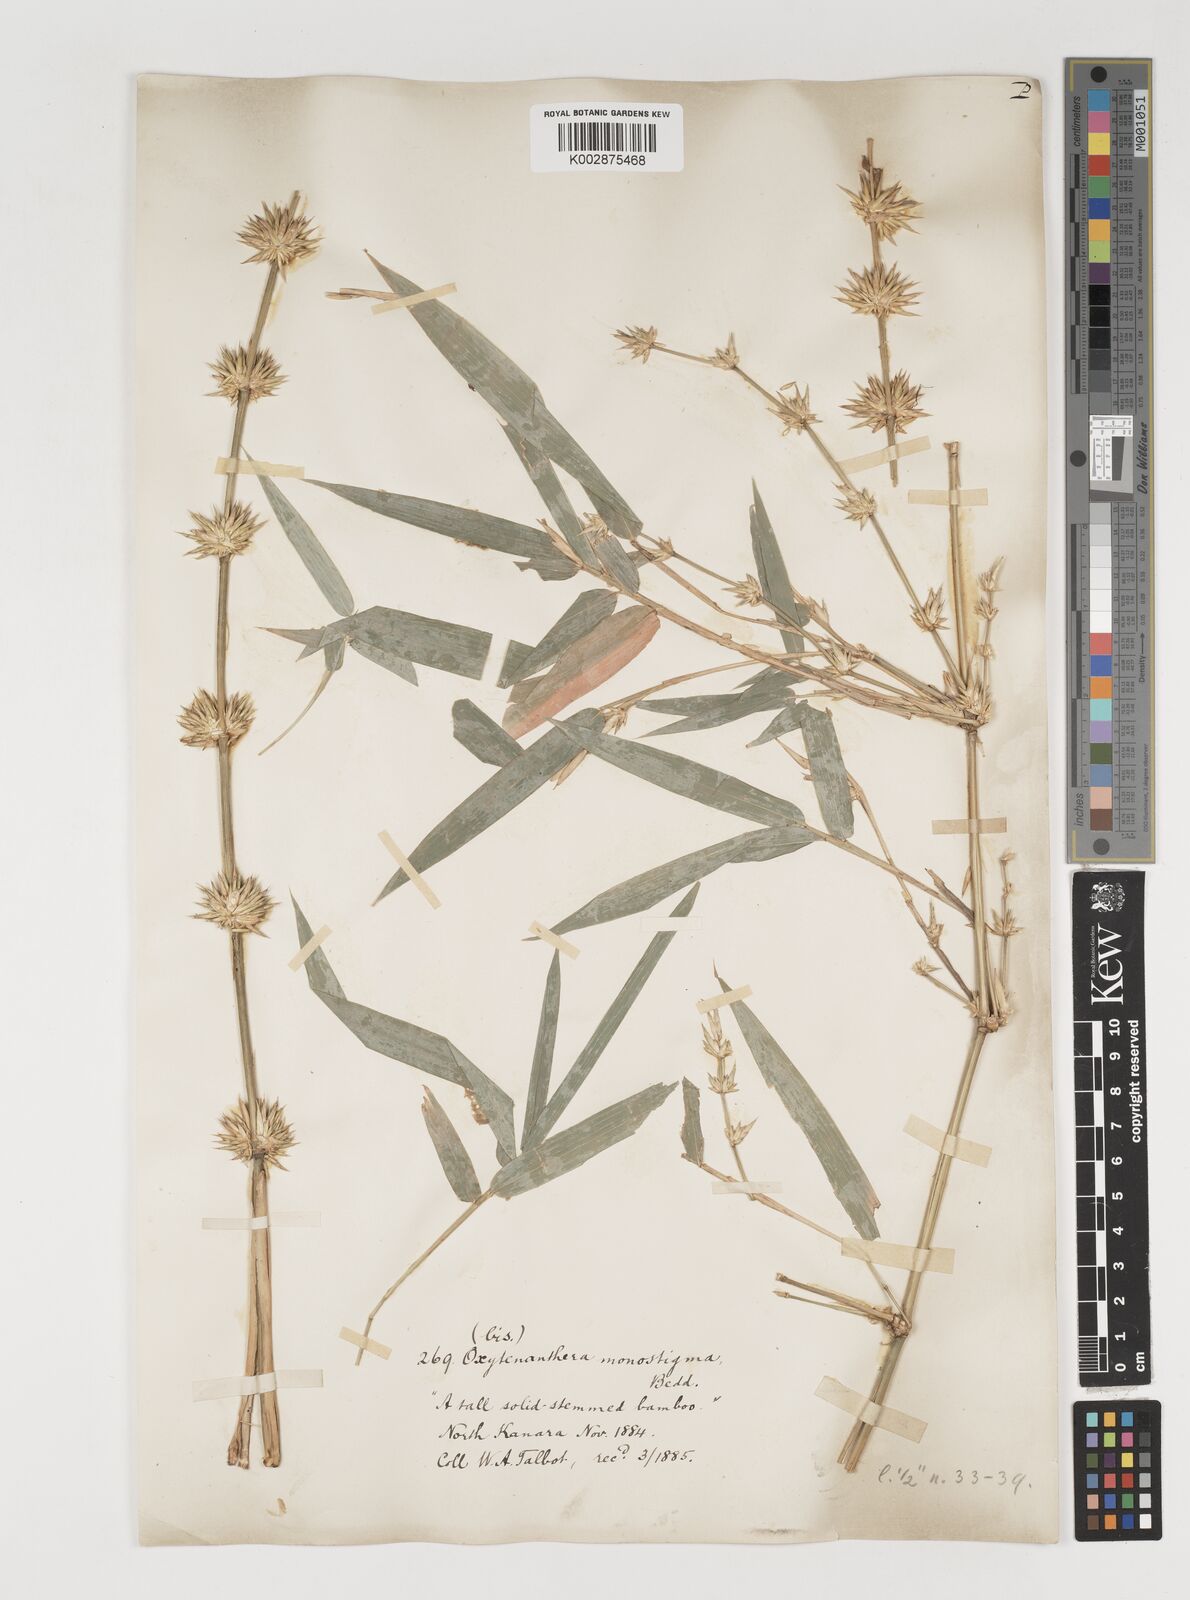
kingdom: Plantae
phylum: Tracheophyta
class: Liliopsida
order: Poales
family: Poaceae
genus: Pseudoxytenanthera
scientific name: Pseudoxytenanthera stocksii
